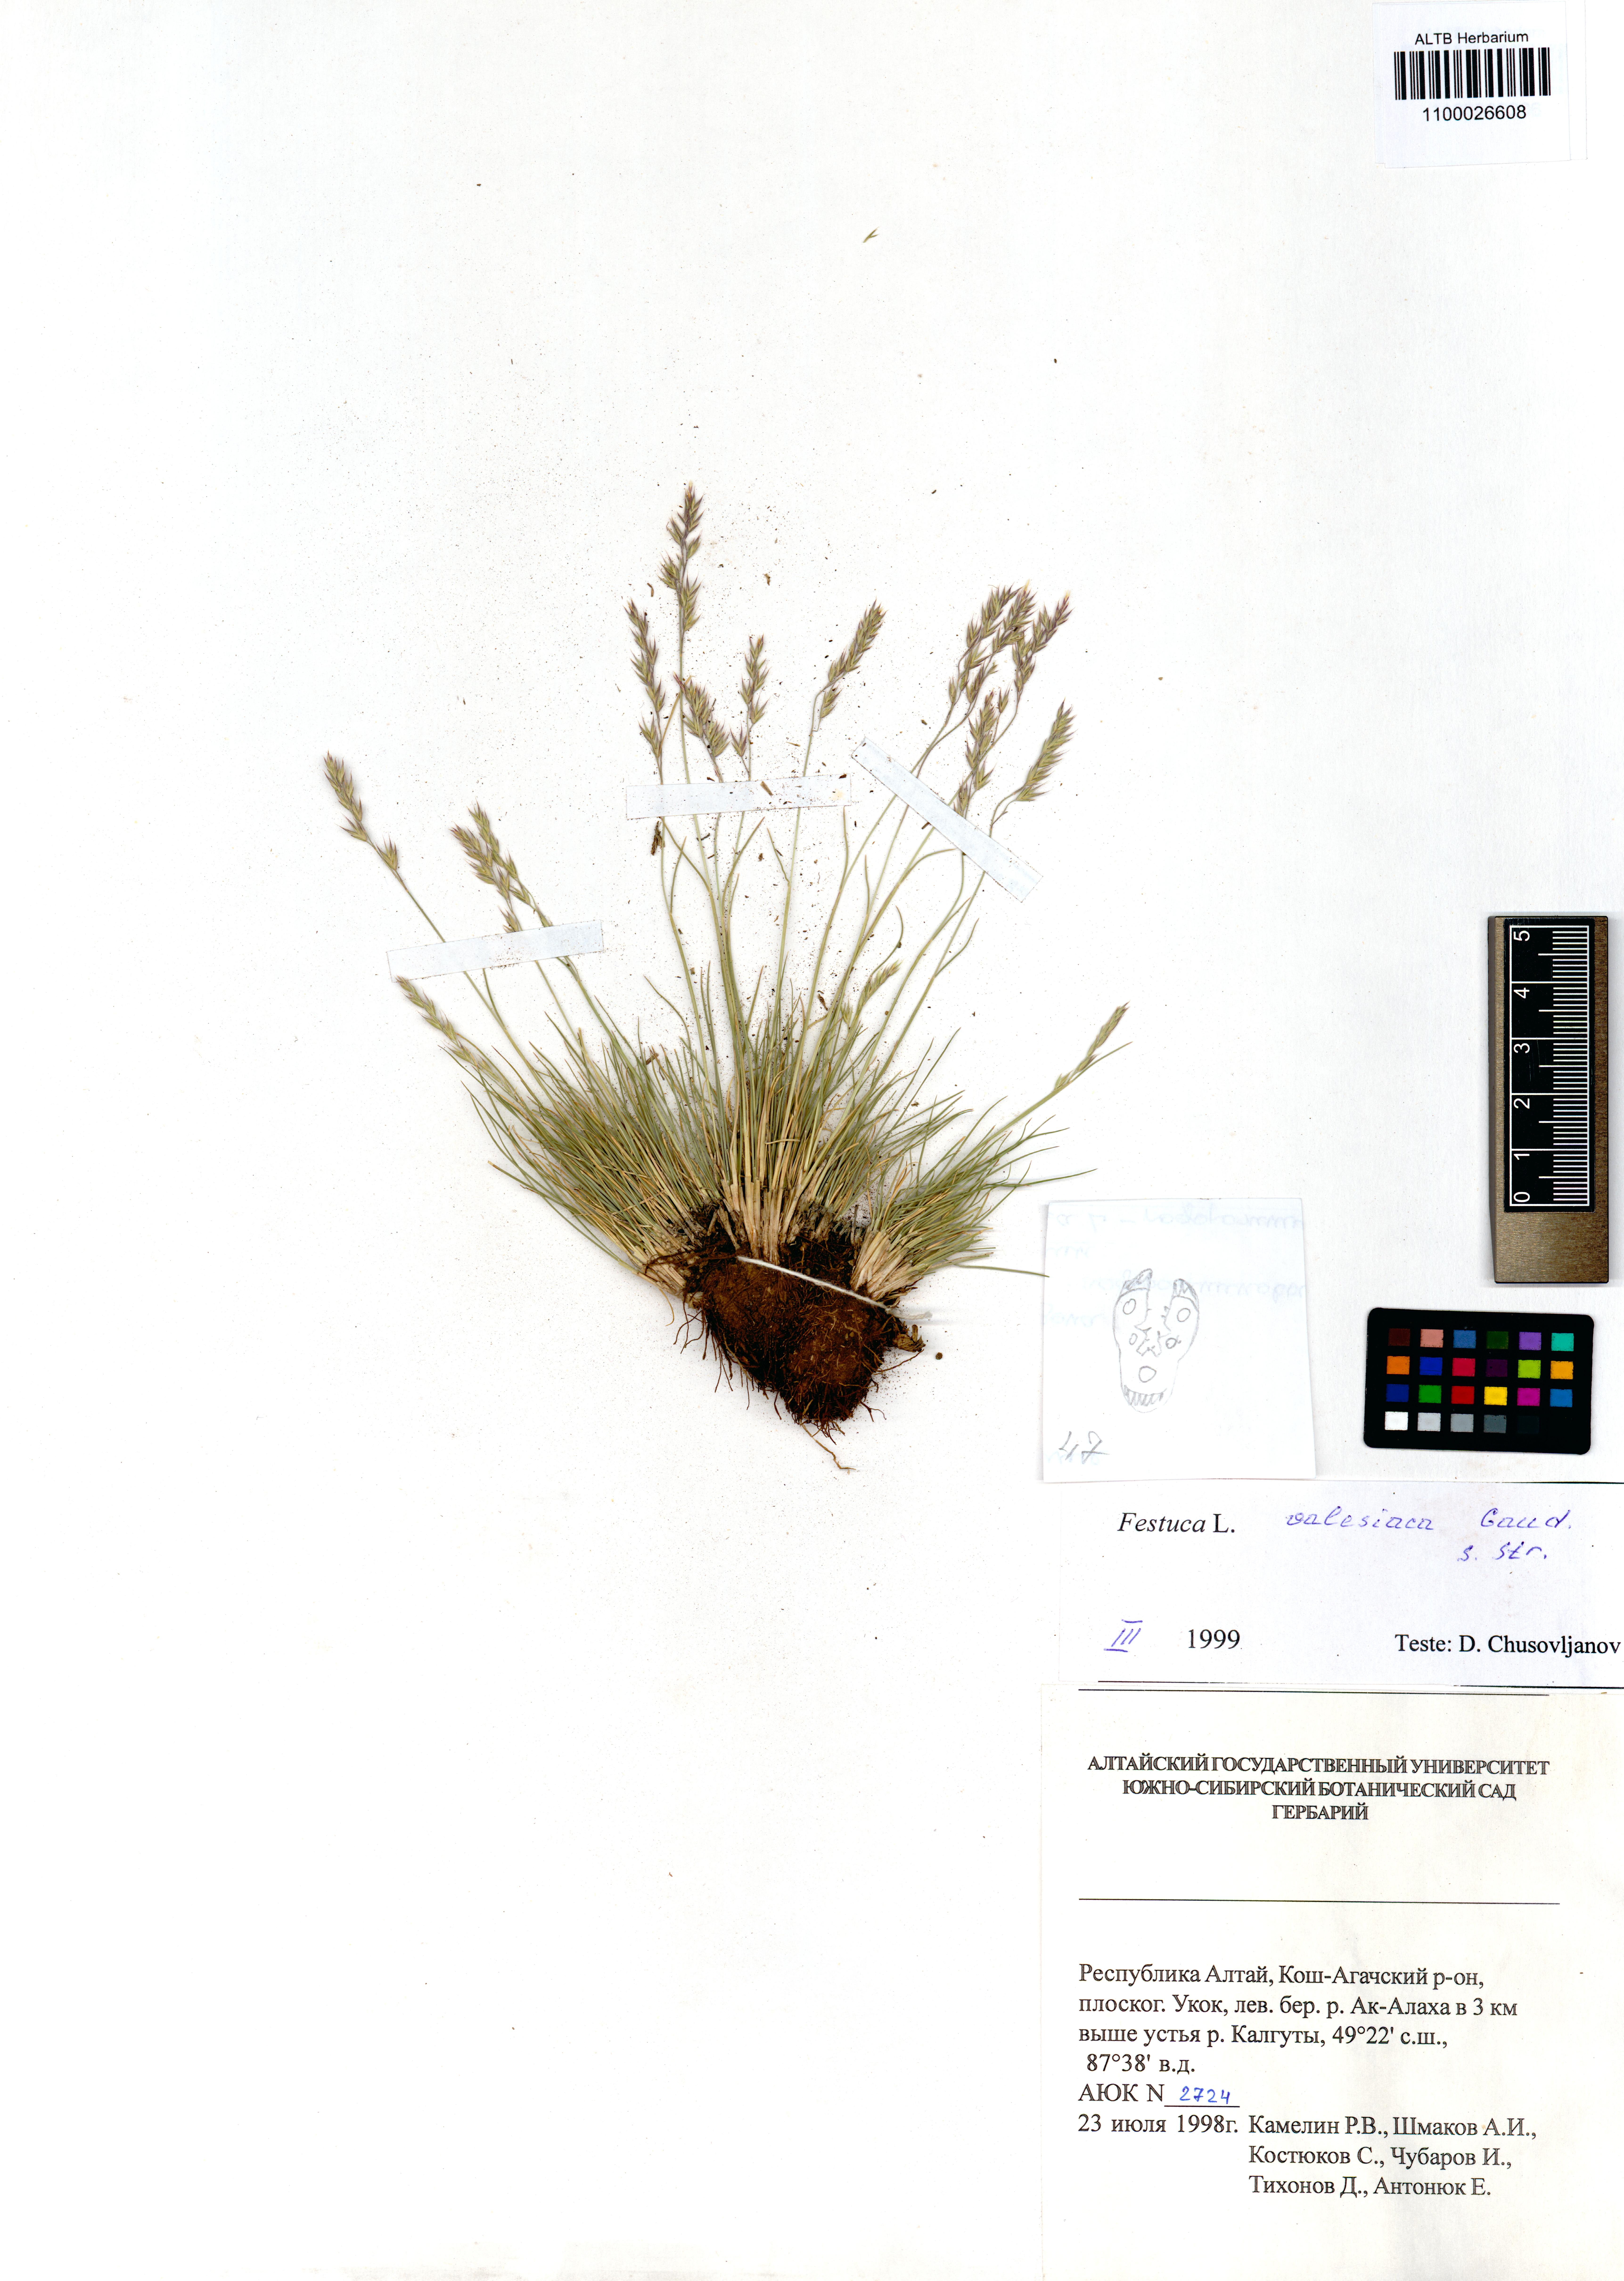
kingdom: Plantae
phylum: Tracheophyta
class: Liliopsida
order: Poales
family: Poaceae
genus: Festuca
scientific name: Festuca valesiaca
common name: Volga fescue
